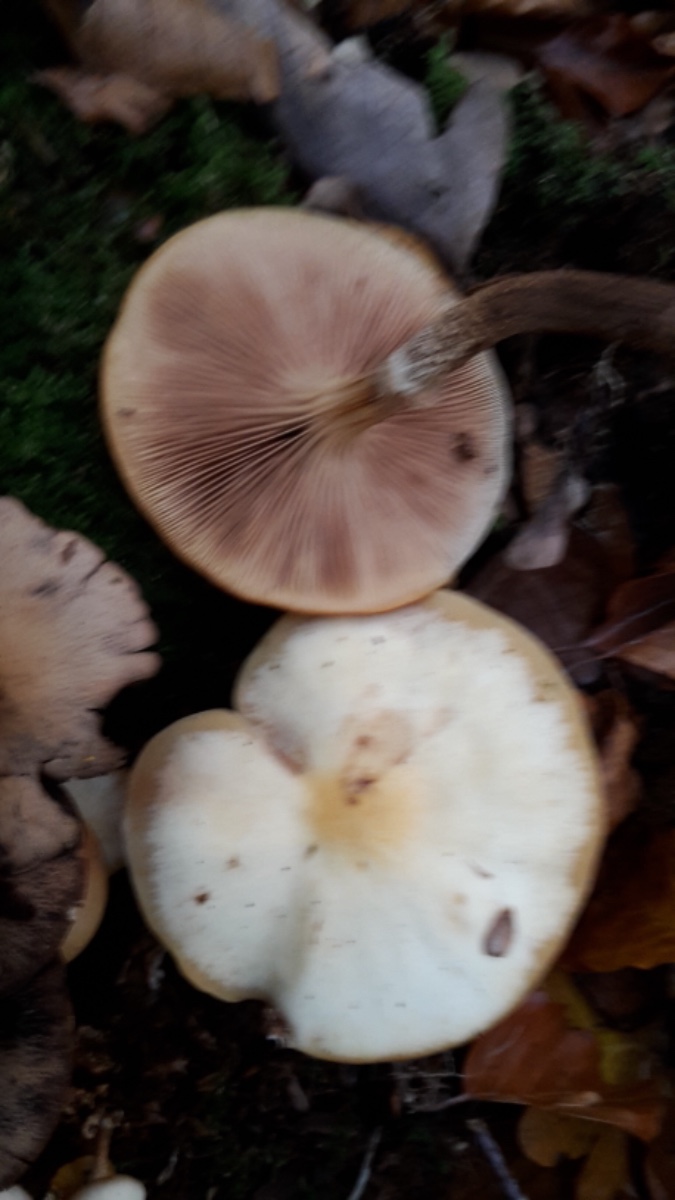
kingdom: Fungi
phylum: Basidiomycota
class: Agaricomycetes
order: Agaricales
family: Strophariaceae
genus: Kuehneromyces
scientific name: Kuehneromyces mutabilis
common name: foranderlig skælhat
